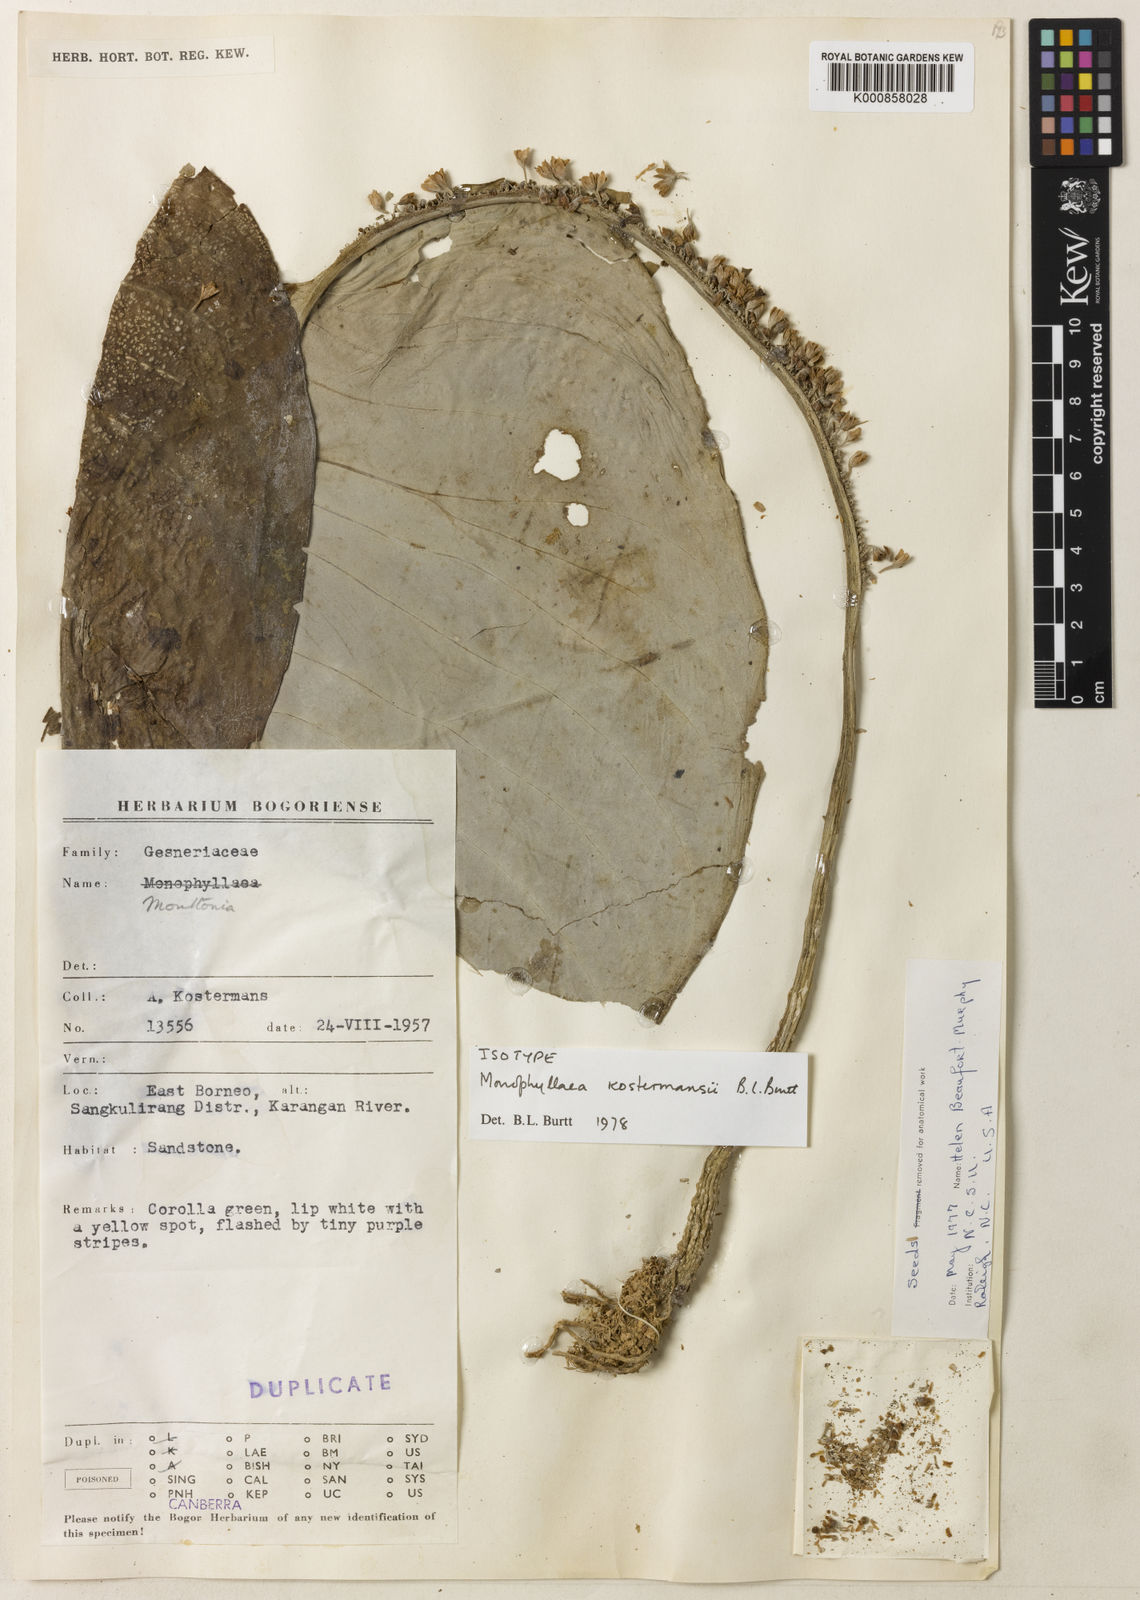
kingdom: Plantae
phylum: Tracheophyta
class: Magnoliopsida
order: Lamiales
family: Gesneriaceae
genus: Monophyllaea
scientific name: Monophyllaea kostermansii
